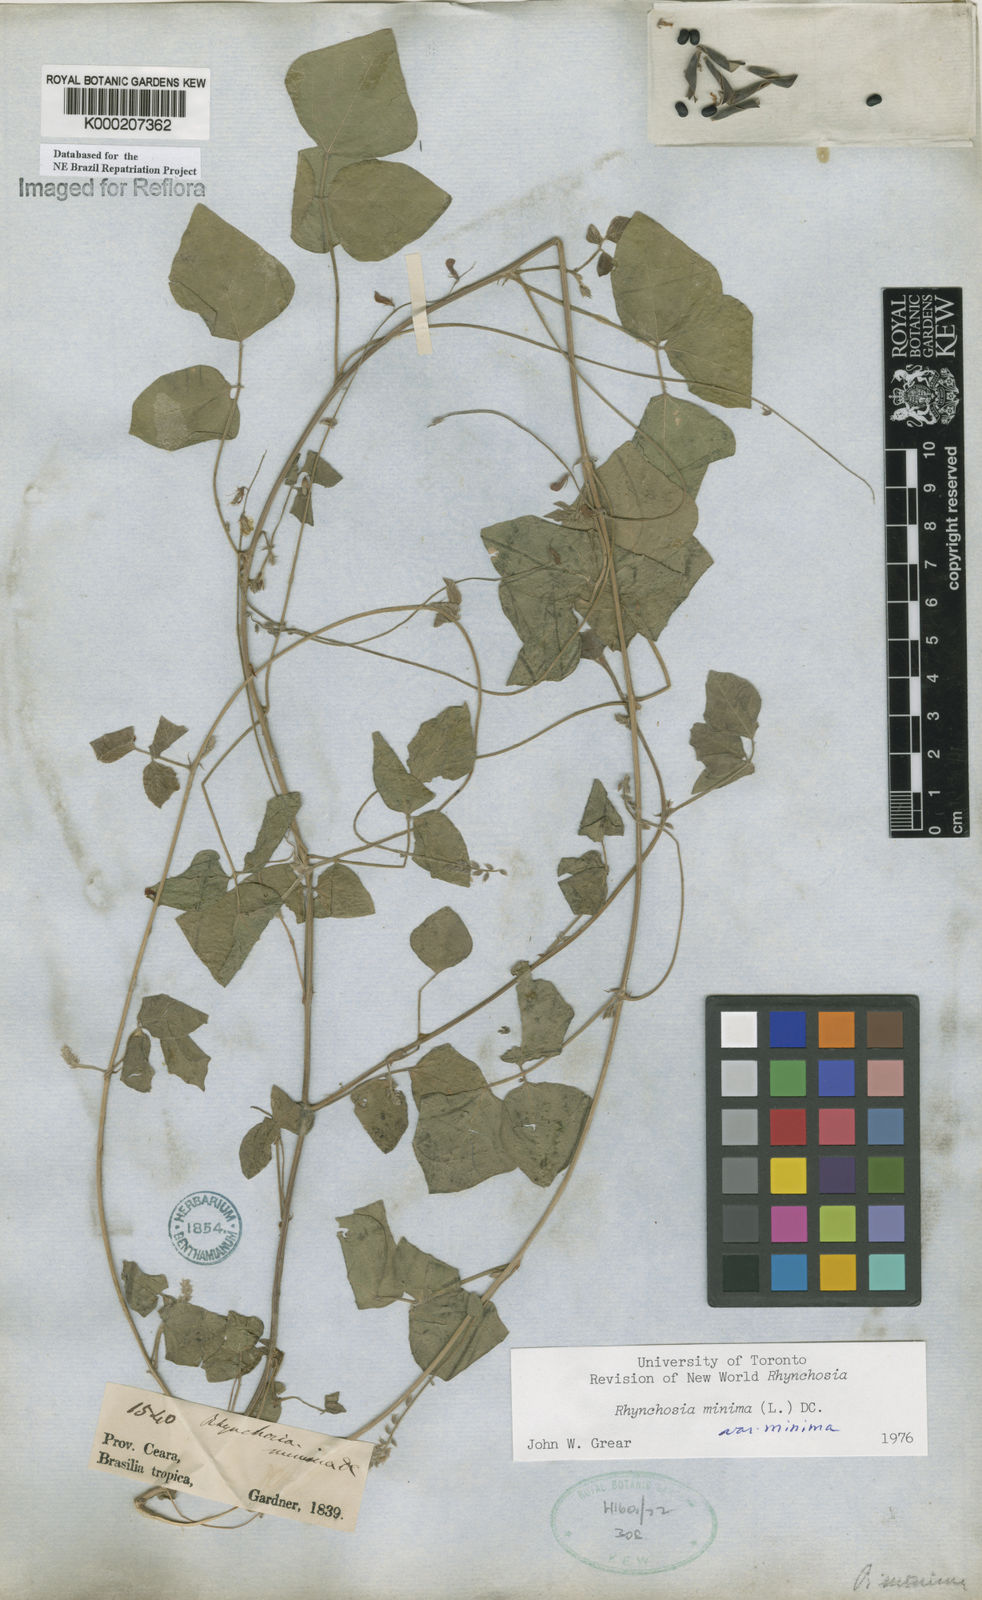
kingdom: Plantae
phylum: Tracheophyta
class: Magnoliopsida
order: Fabales
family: Fabaceae
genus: Rhynchosia
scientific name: Rhynchosia minima
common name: Least snoutbean
